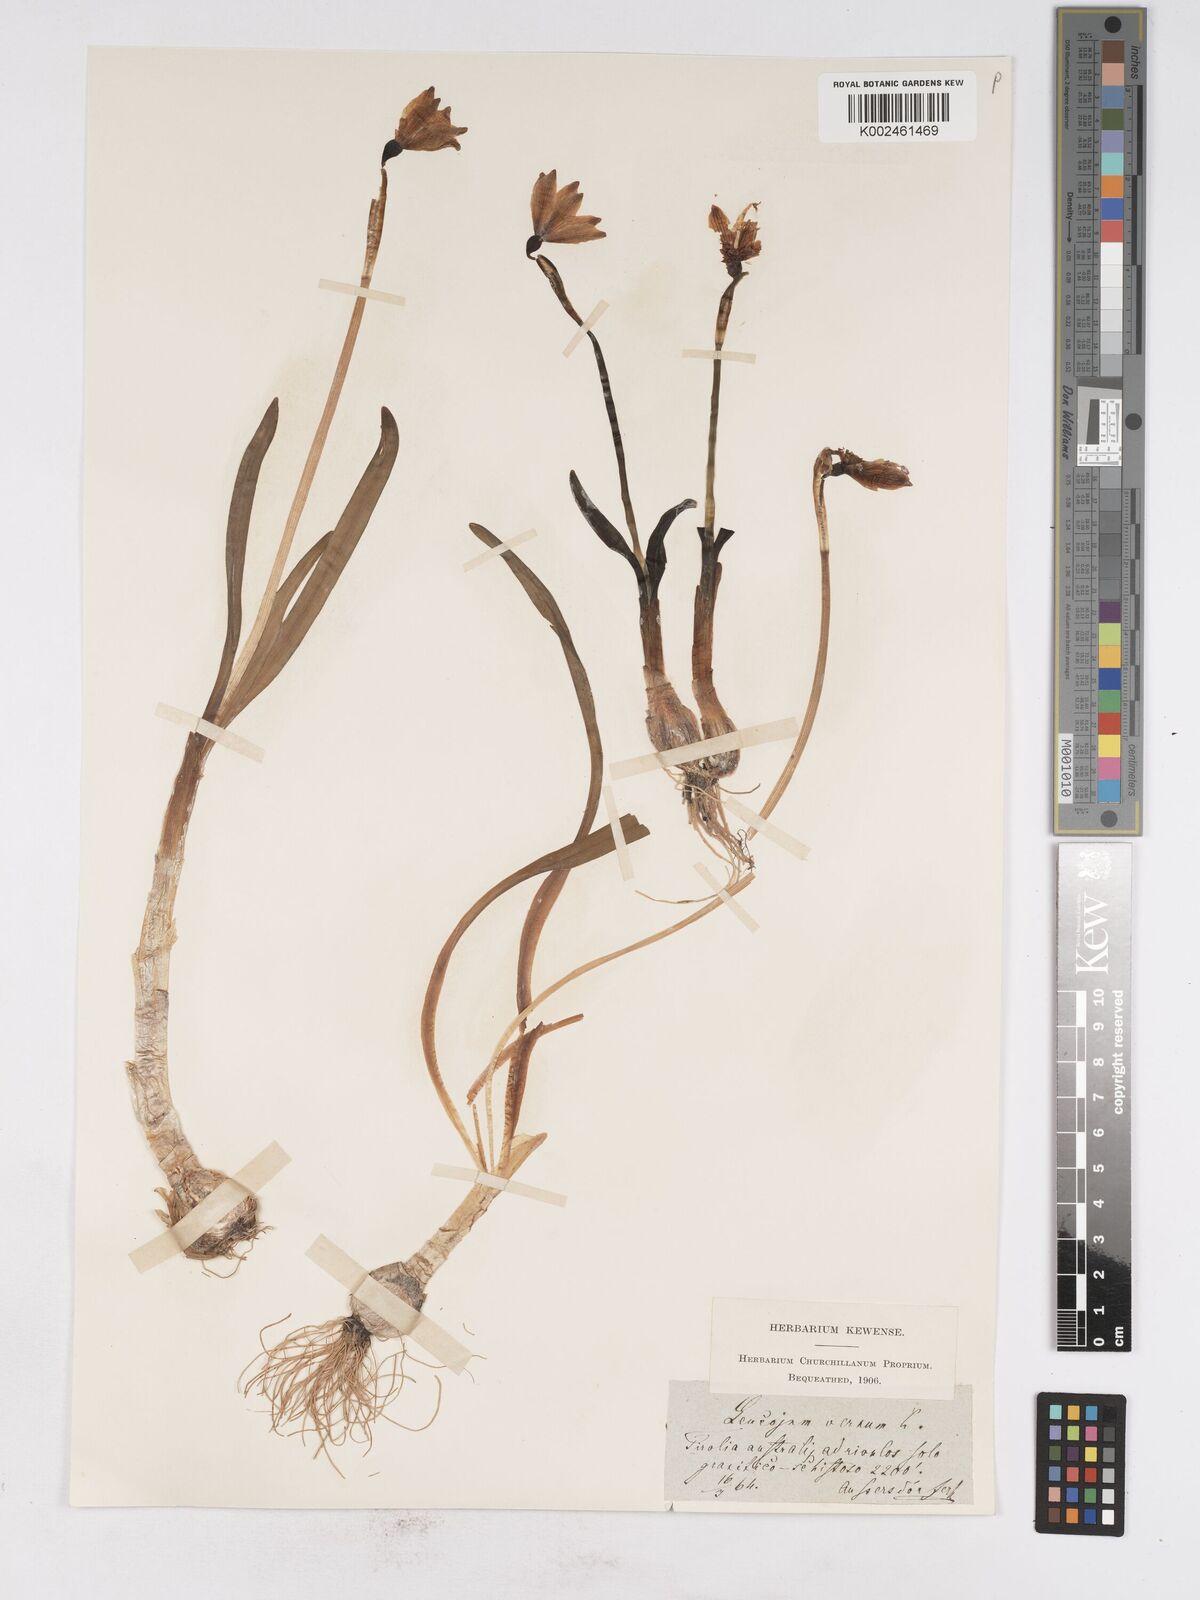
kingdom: Plantae
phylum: Tracheophyta
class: Liliopsida
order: Asparagales
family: Amaryllidaceae
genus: Leucojum
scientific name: Leucojum vernum
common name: Spring snowflake
